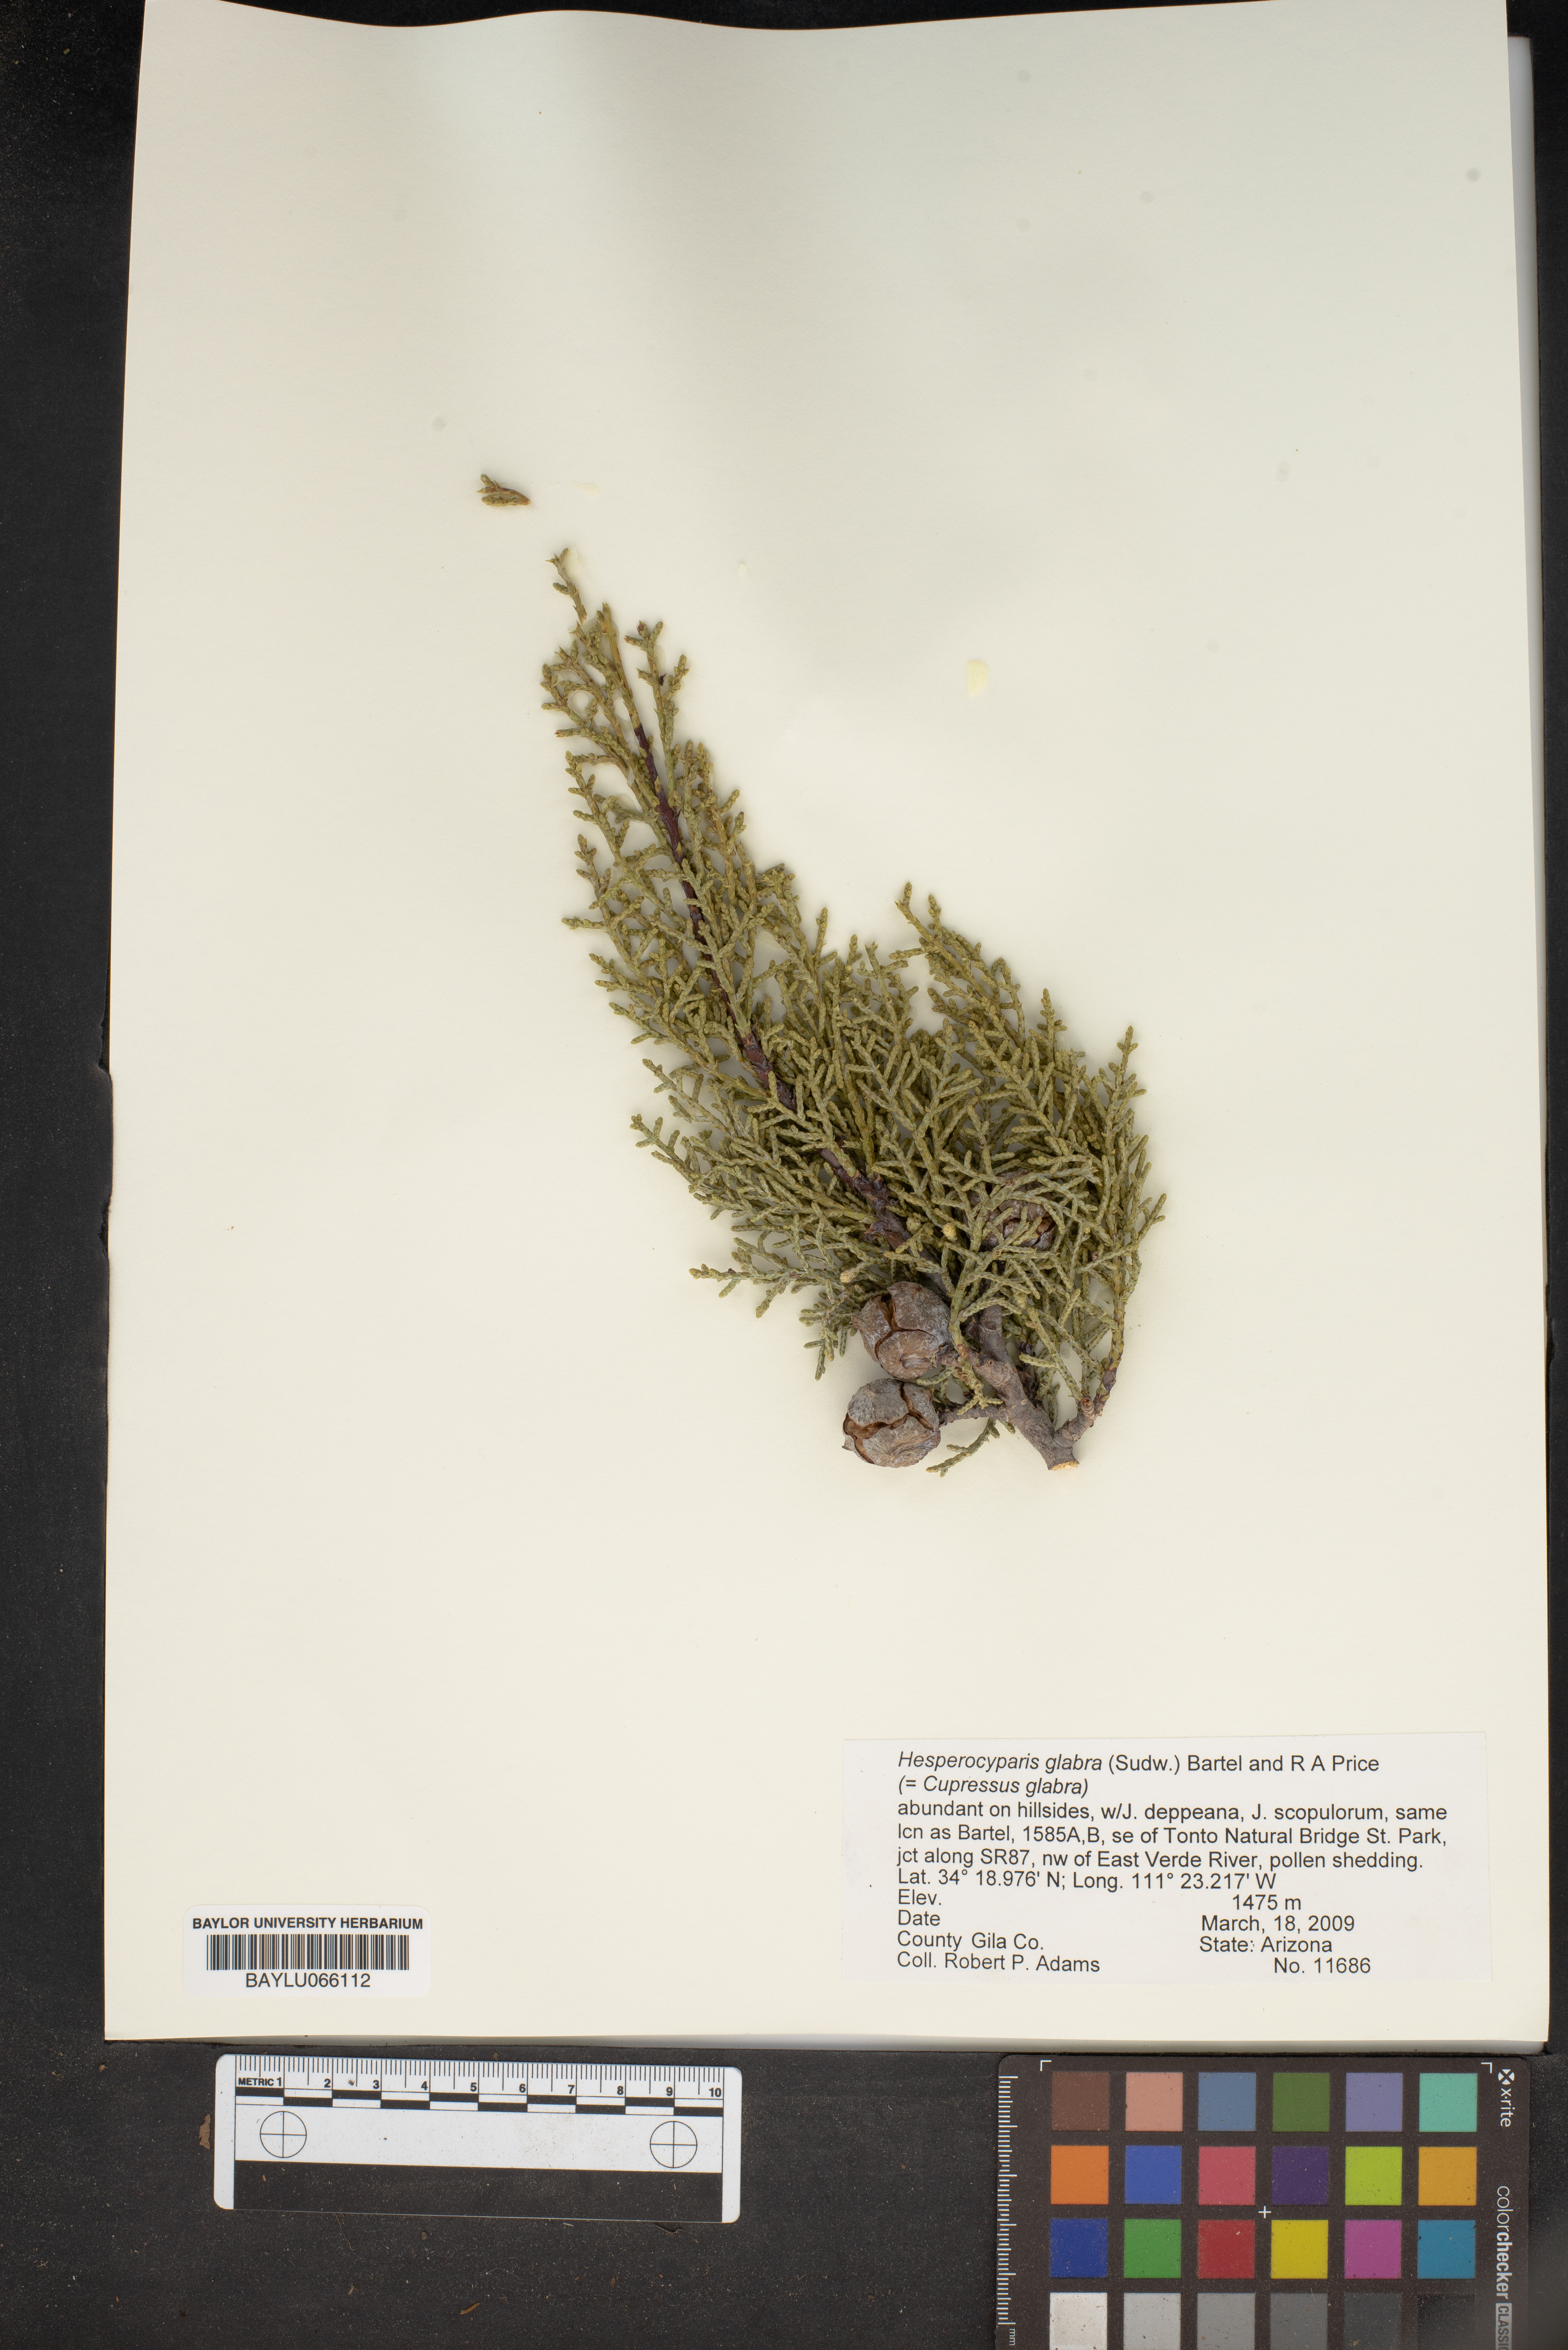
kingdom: Plantae
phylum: Tracheophyta
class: Pinopsida
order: Pinales
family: Cupressaceae
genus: Cupressus
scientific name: Cupressus arizonica
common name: Arizona cypress
